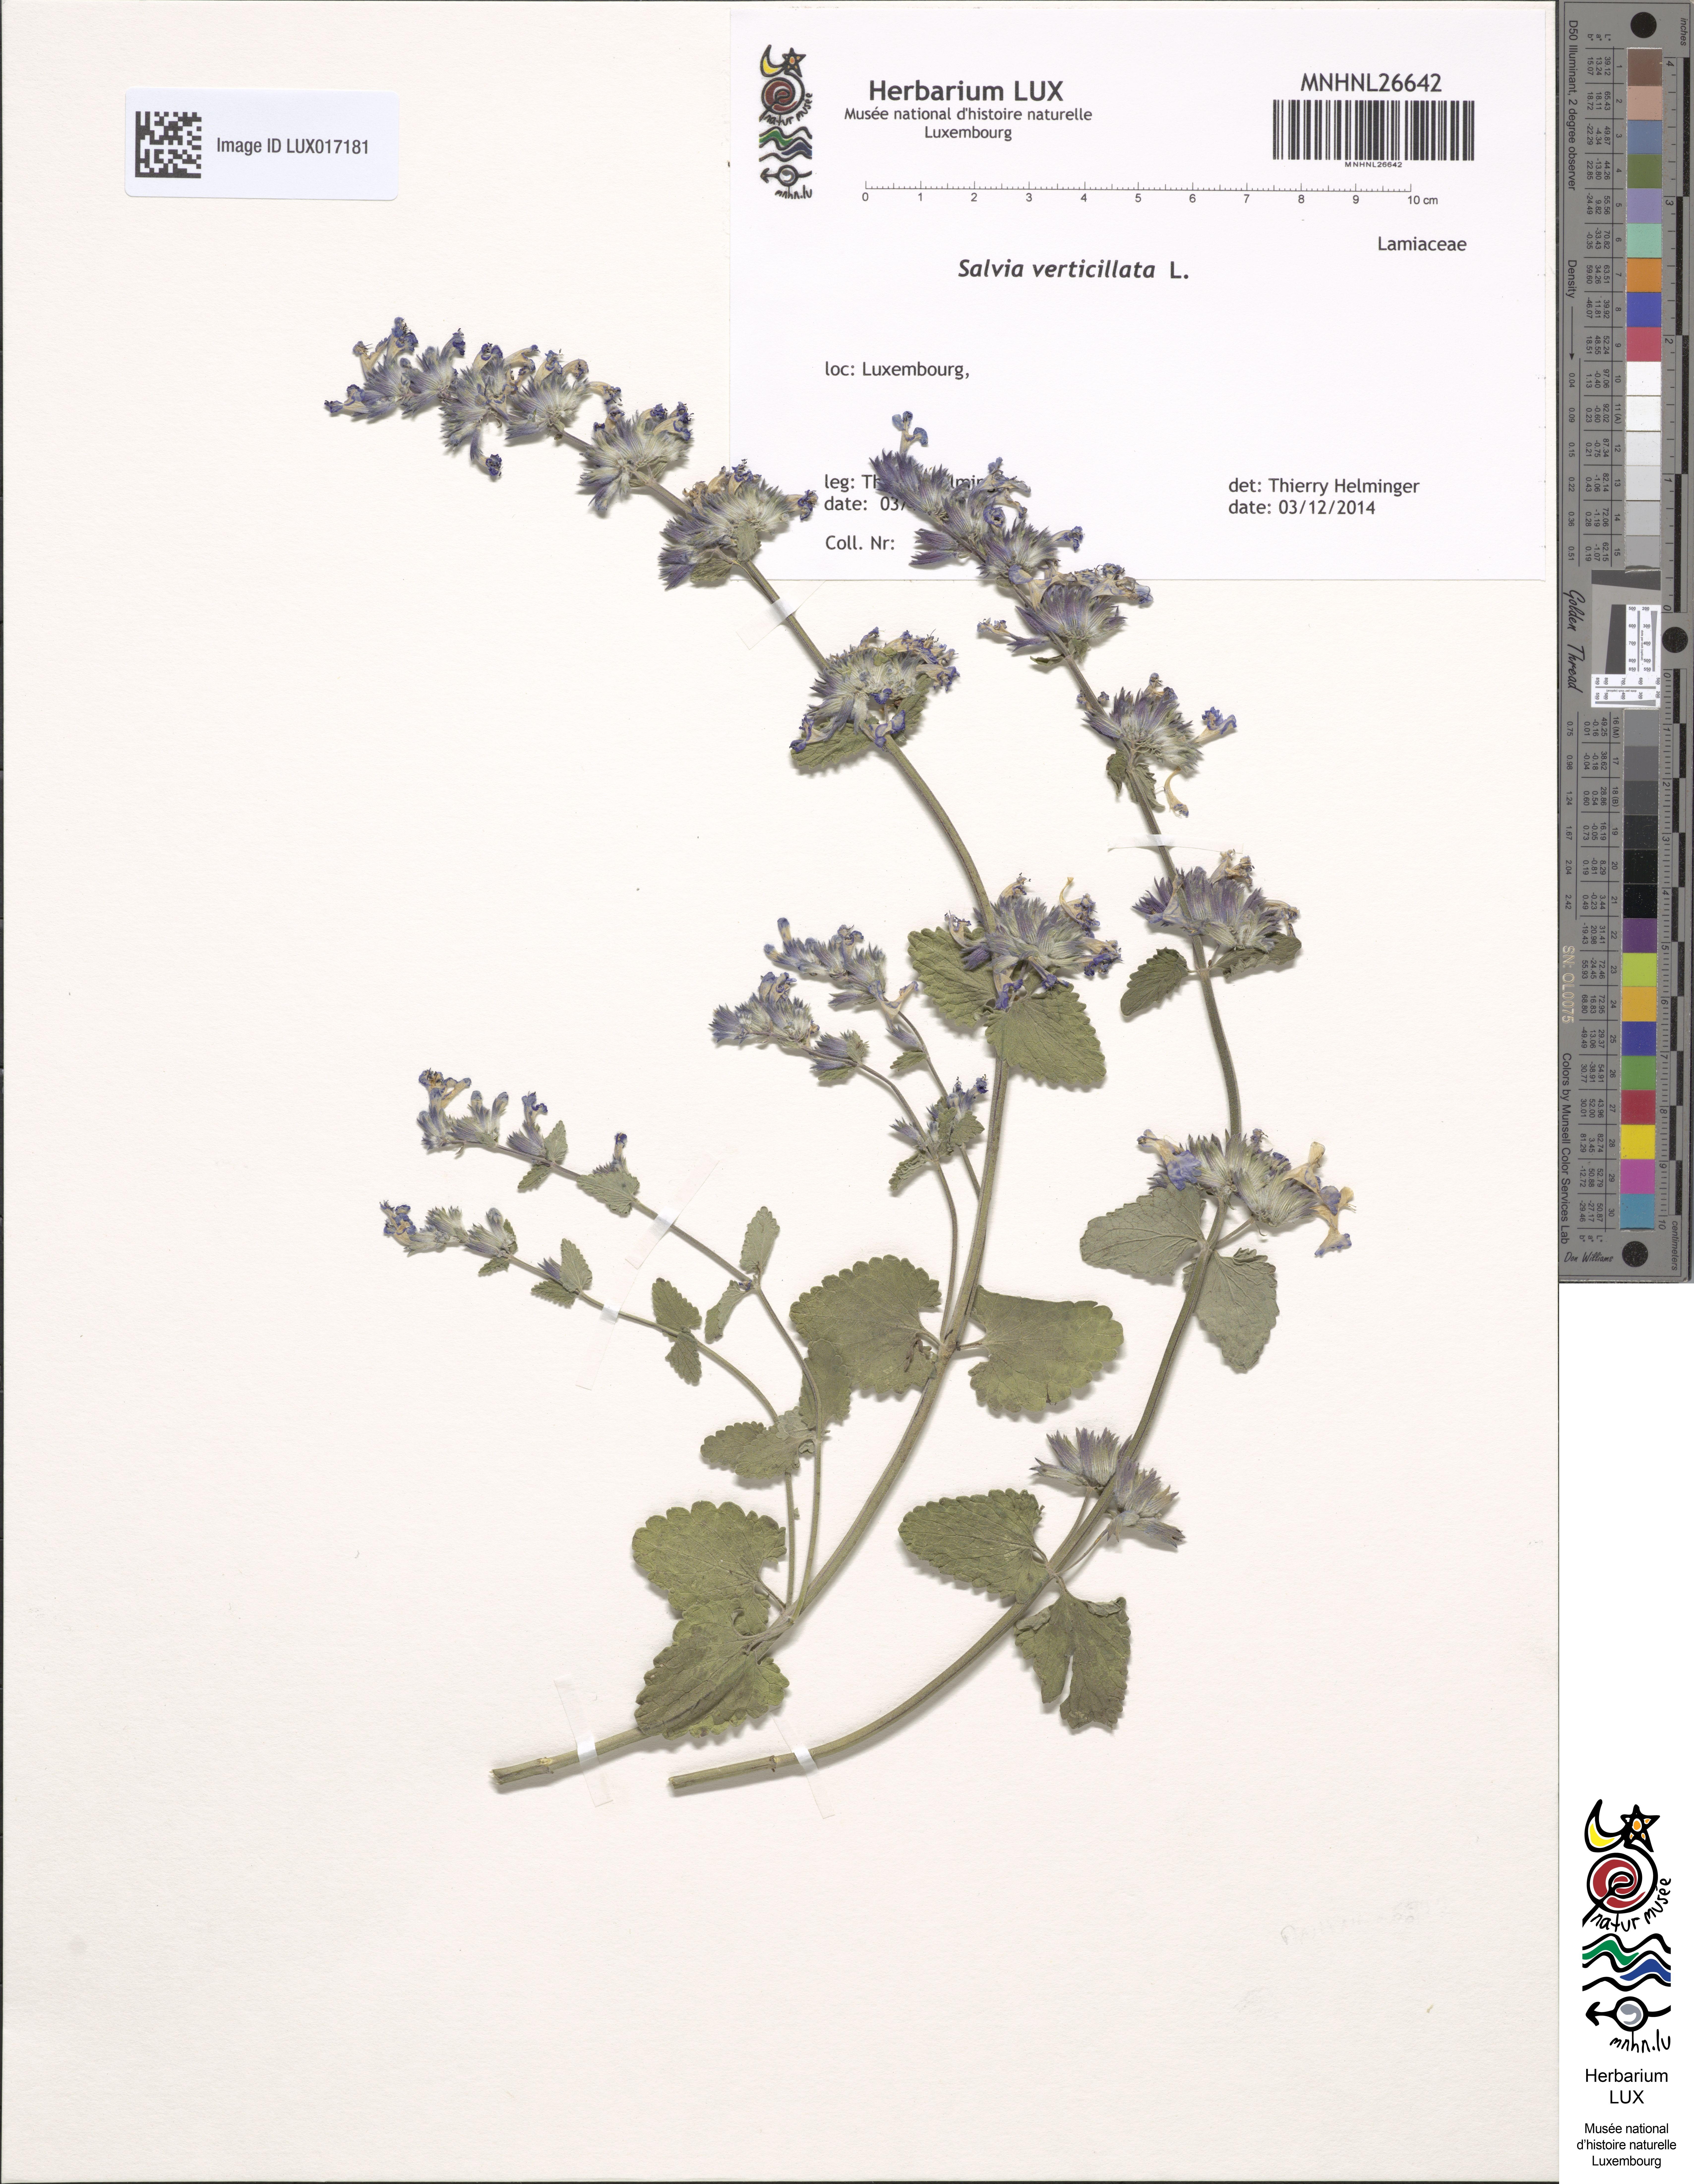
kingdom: Plantae
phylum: Tracheophyta
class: Magnoliopsida
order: Lamiales
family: Lamiaceae
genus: Salvia
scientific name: Salvia verticillata
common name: Whorled clary
